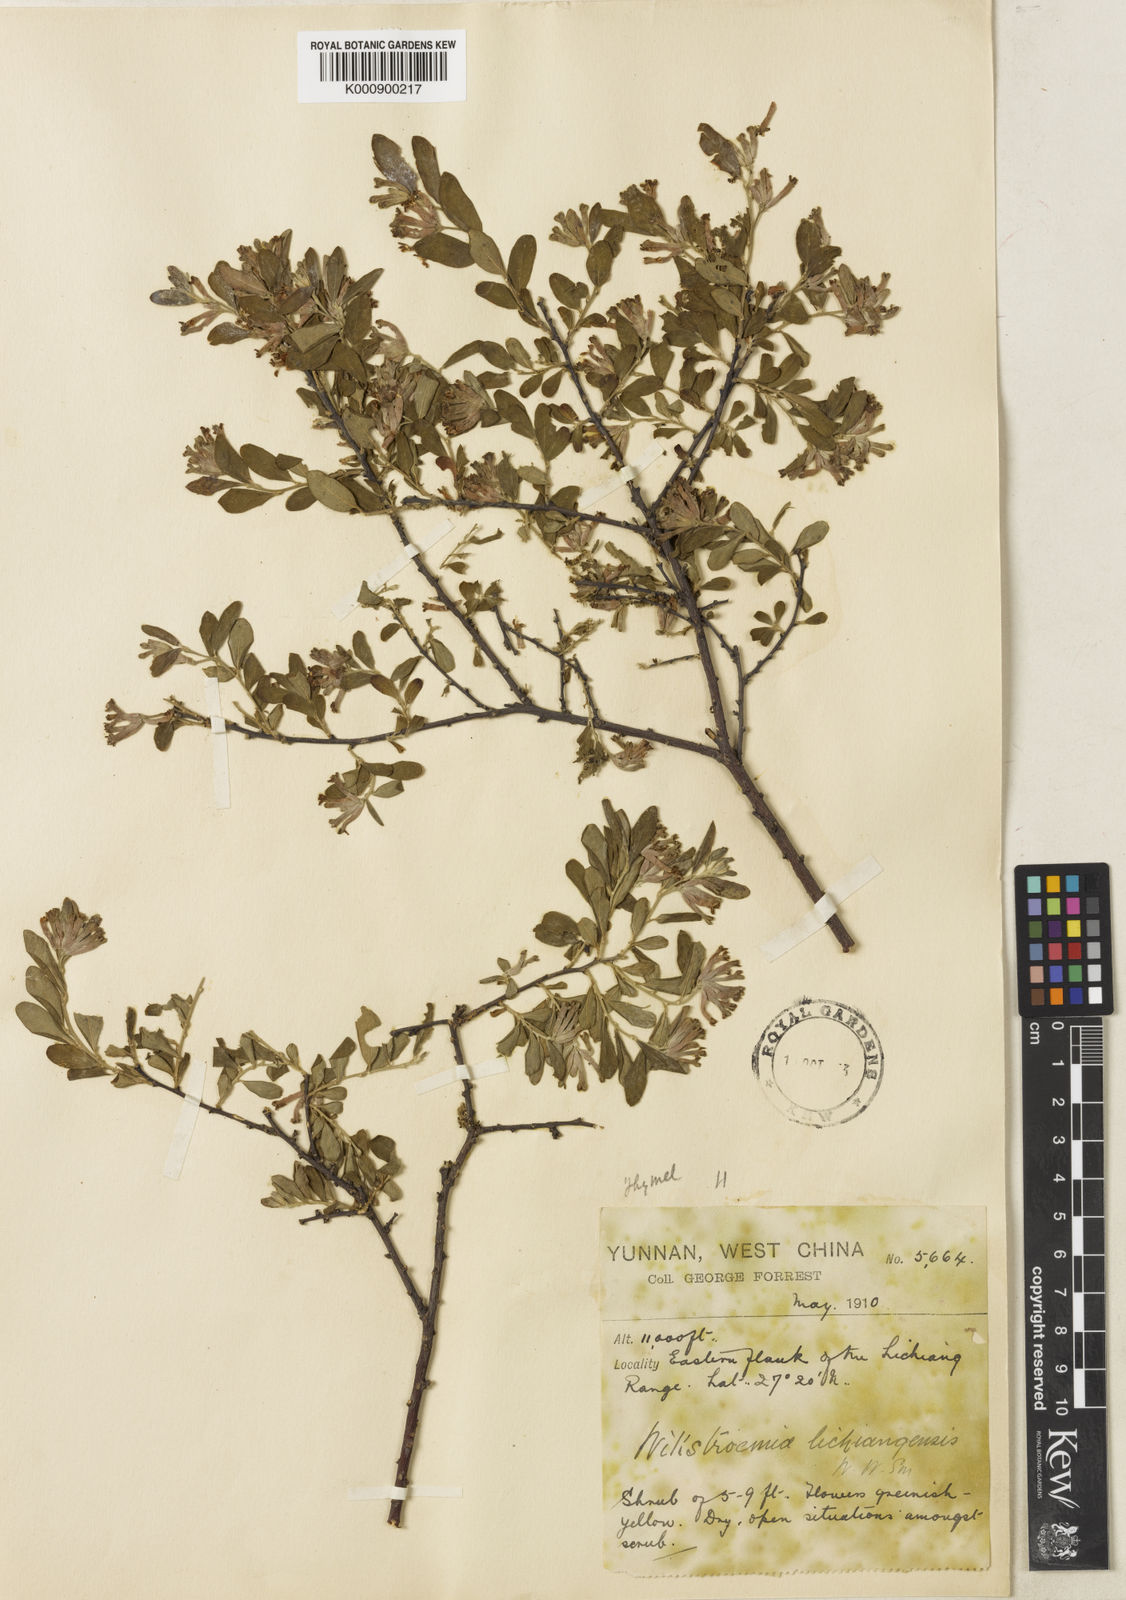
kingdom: Plantae
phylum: Tracheophyta
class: Magnoliopsida
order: Malvales
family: Thymelaeaceae
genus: Wikstroemia
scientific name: Wikstroemia lichiangensis
